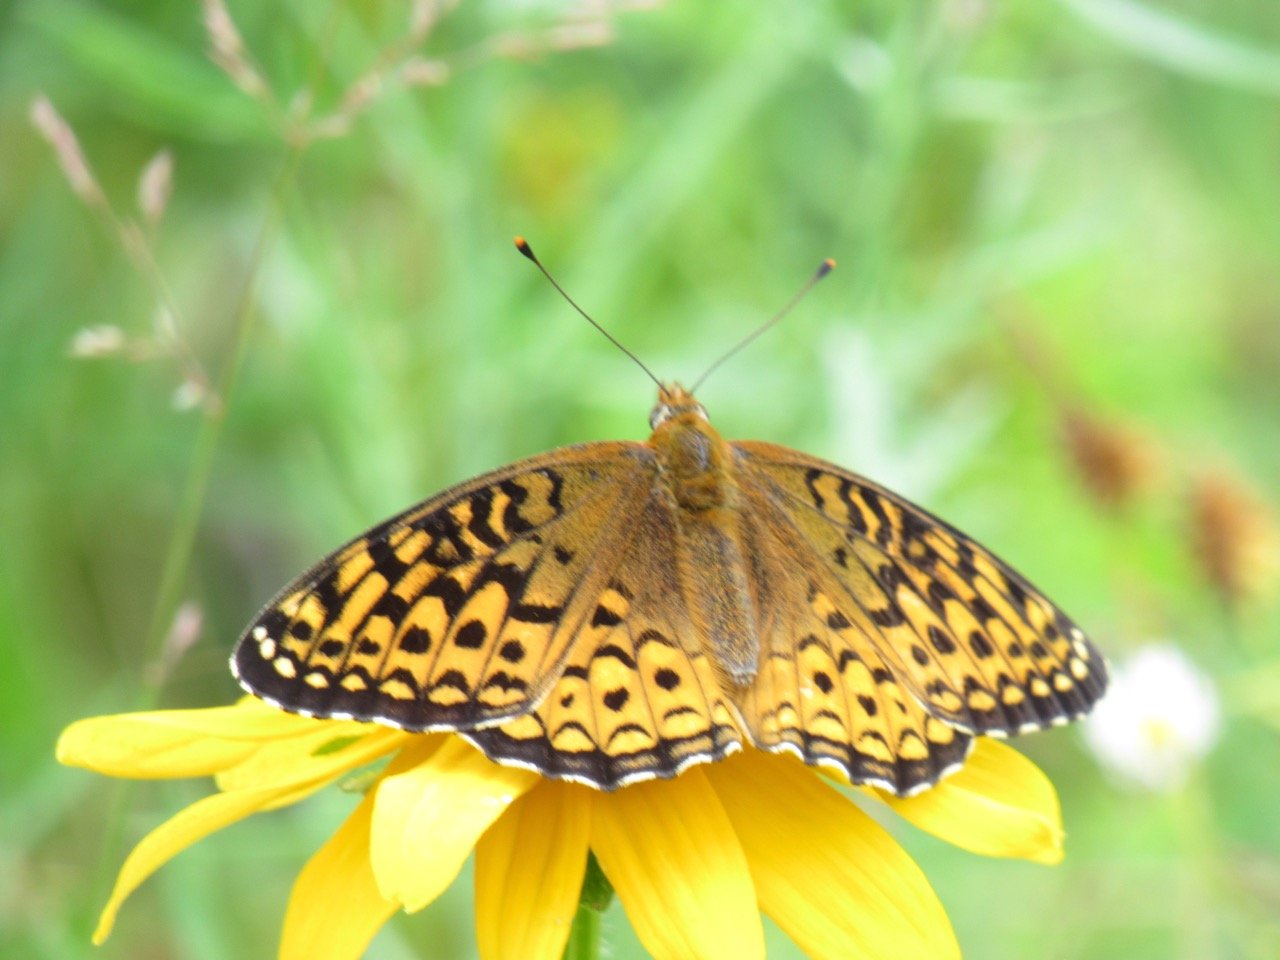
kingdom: Animalia
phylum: Arthropoda
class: Insecta
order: Lepidoptera
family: Nymphalidae
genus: Speyeria
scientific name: Speyeria atlantis
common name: Atlantis Fritillary
